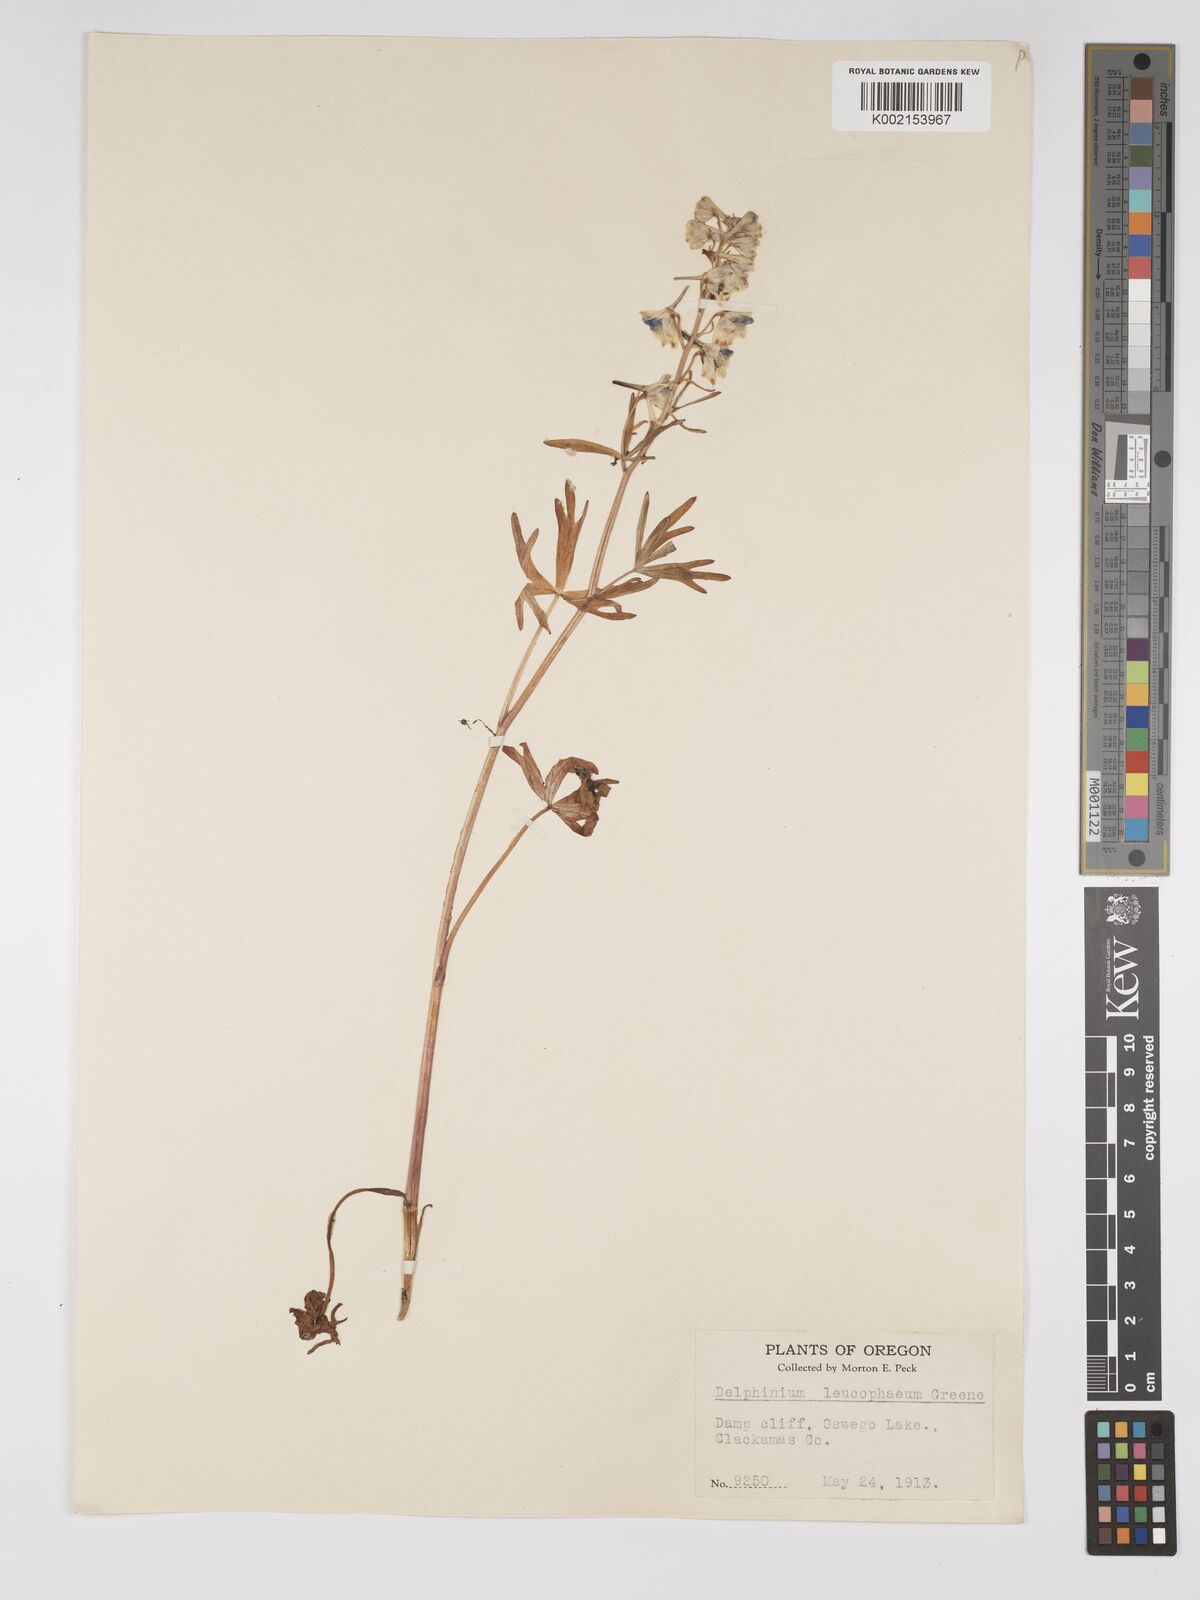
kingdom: Plantae
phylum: Tracheophyta
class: Magnoliopsida
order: Ranunculales
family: Ranunculaceae
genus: Delphinium
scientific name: Delphinium nuttallii
